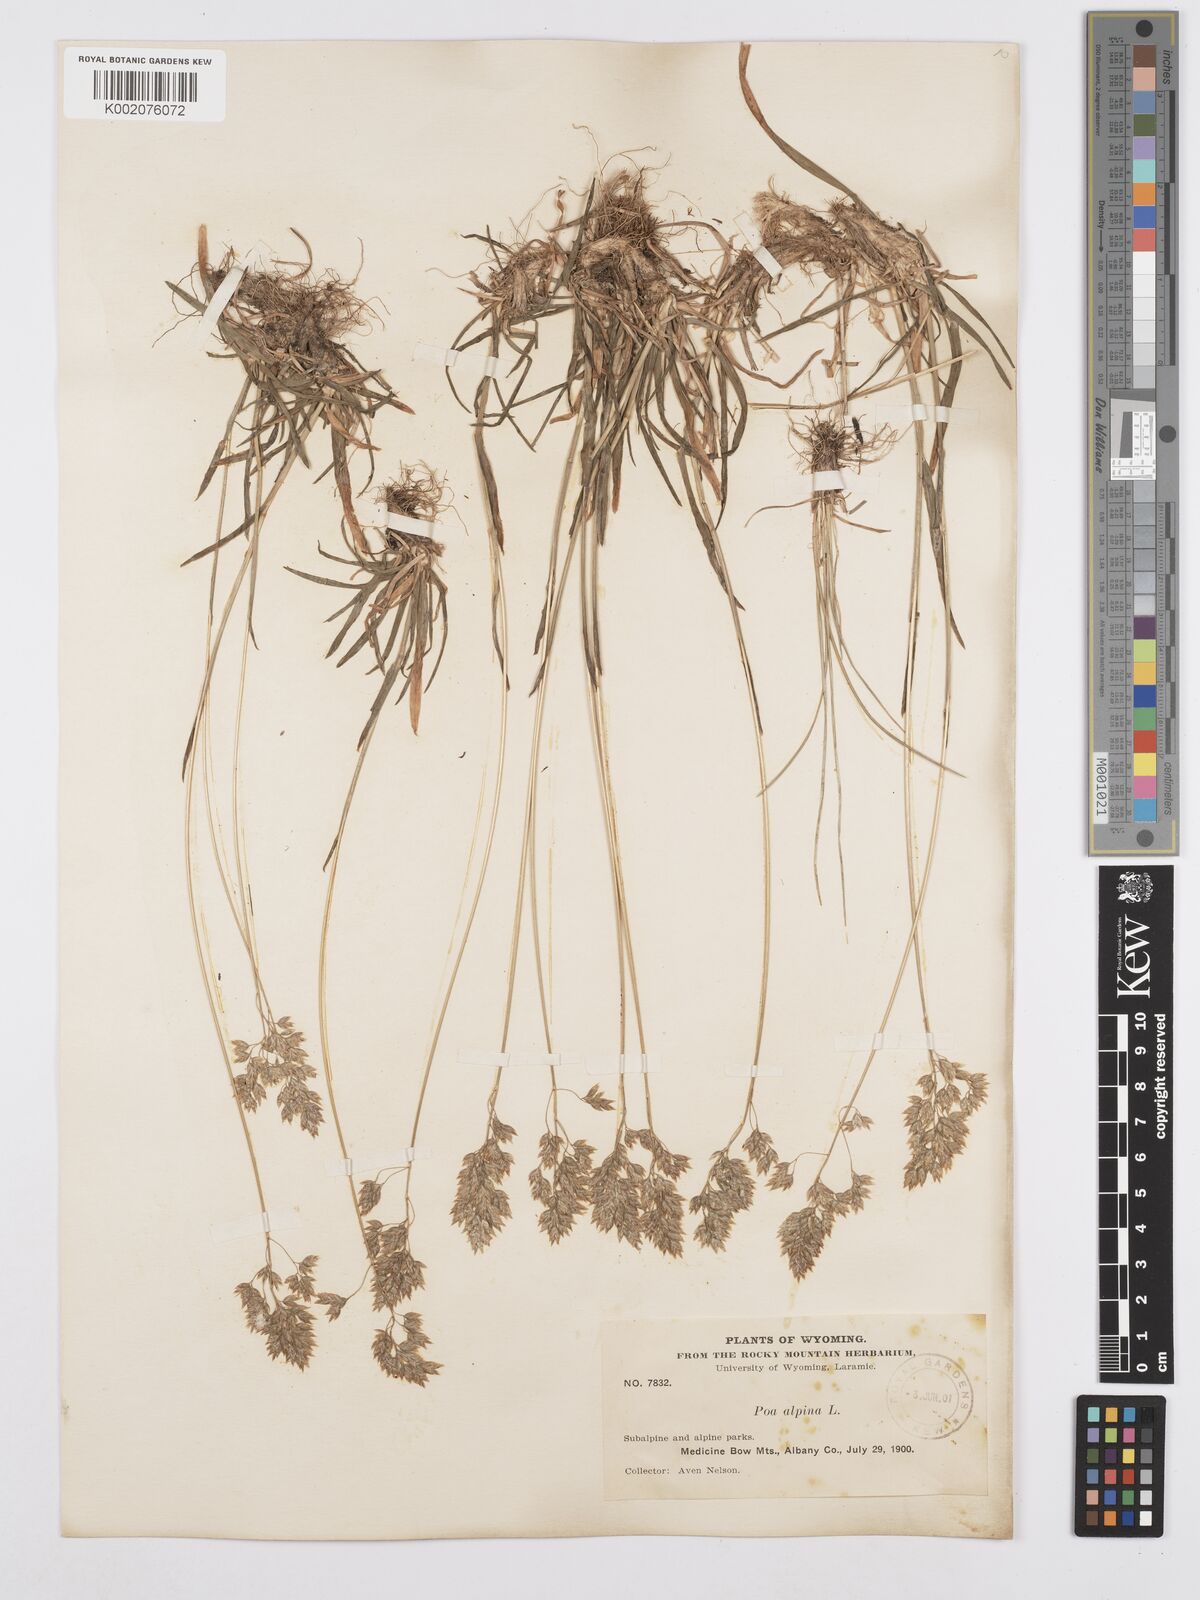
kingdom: Plantae
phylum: Tracheophyta
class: Liliopsida
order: Poales
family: Poaceae
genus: Poa
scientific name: Poa alpina
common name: Alpine bluegrass
